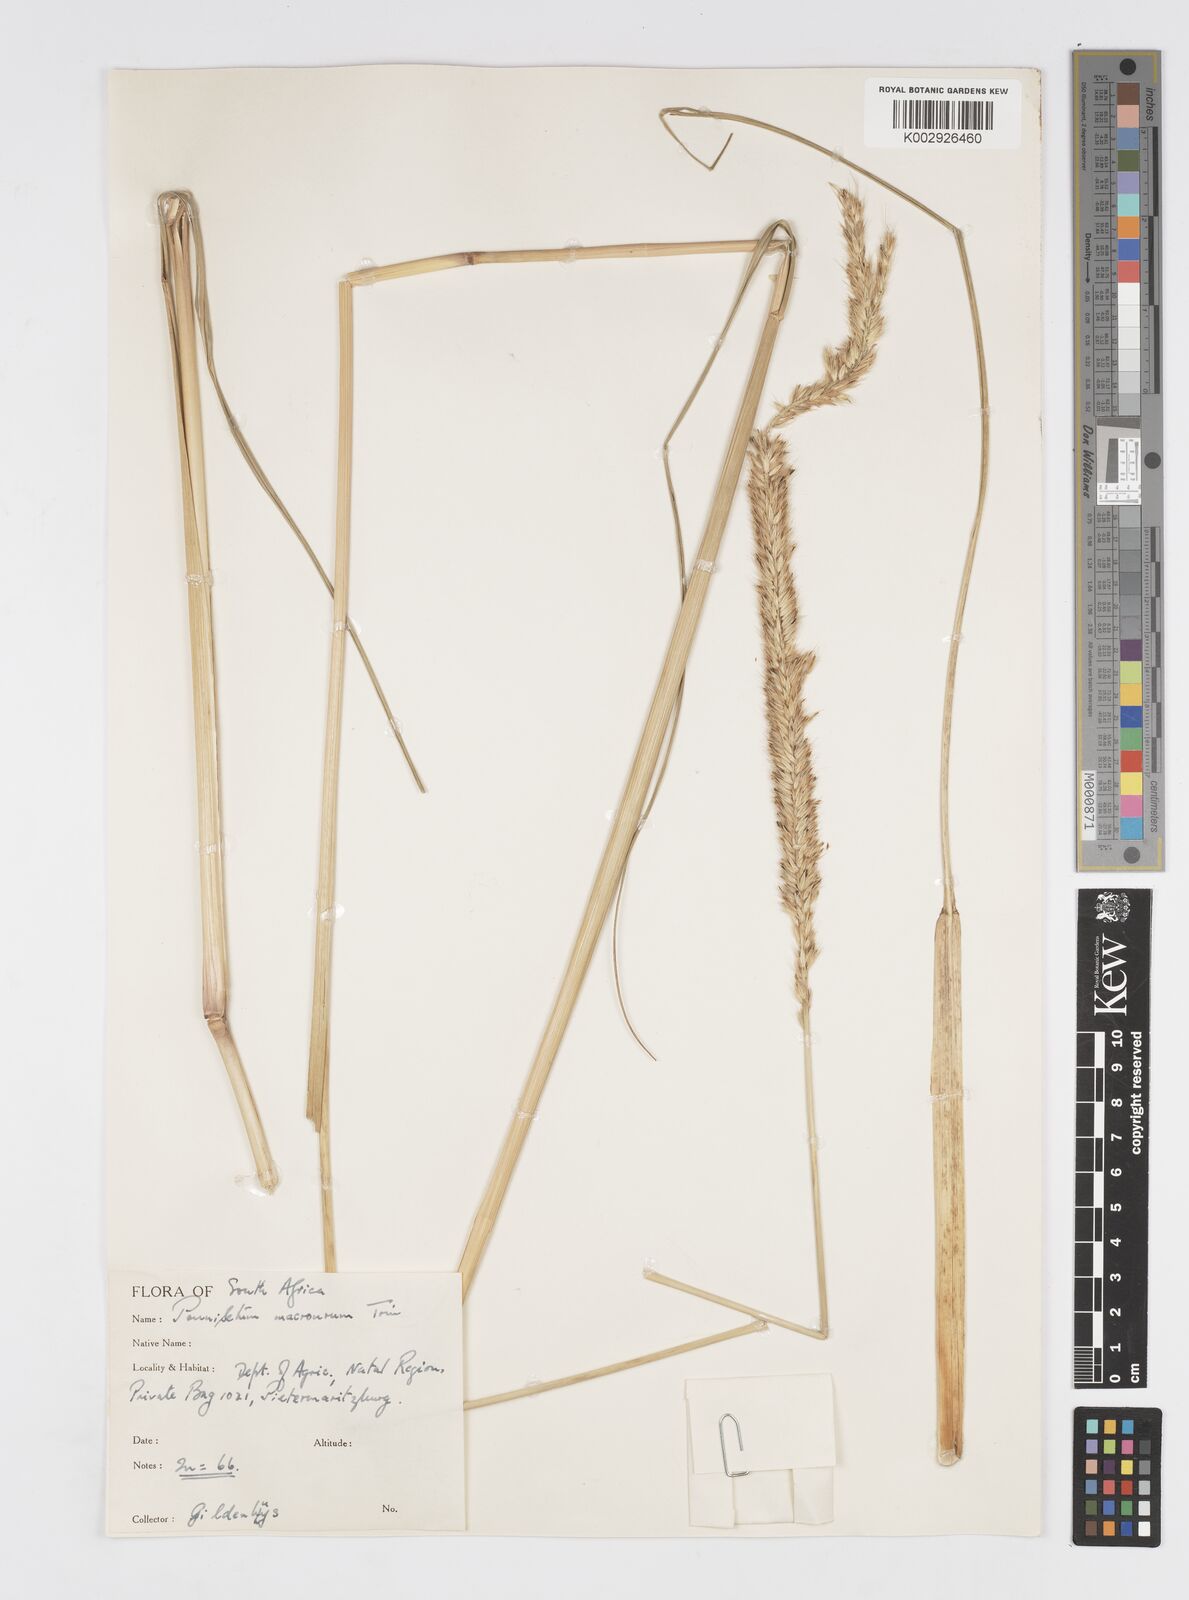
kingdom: Plantae
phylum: Tracheophyta
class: Liliopsida
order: Poales
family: Poaceae
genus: Cenchrus
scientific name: Cenchrus caudatus
